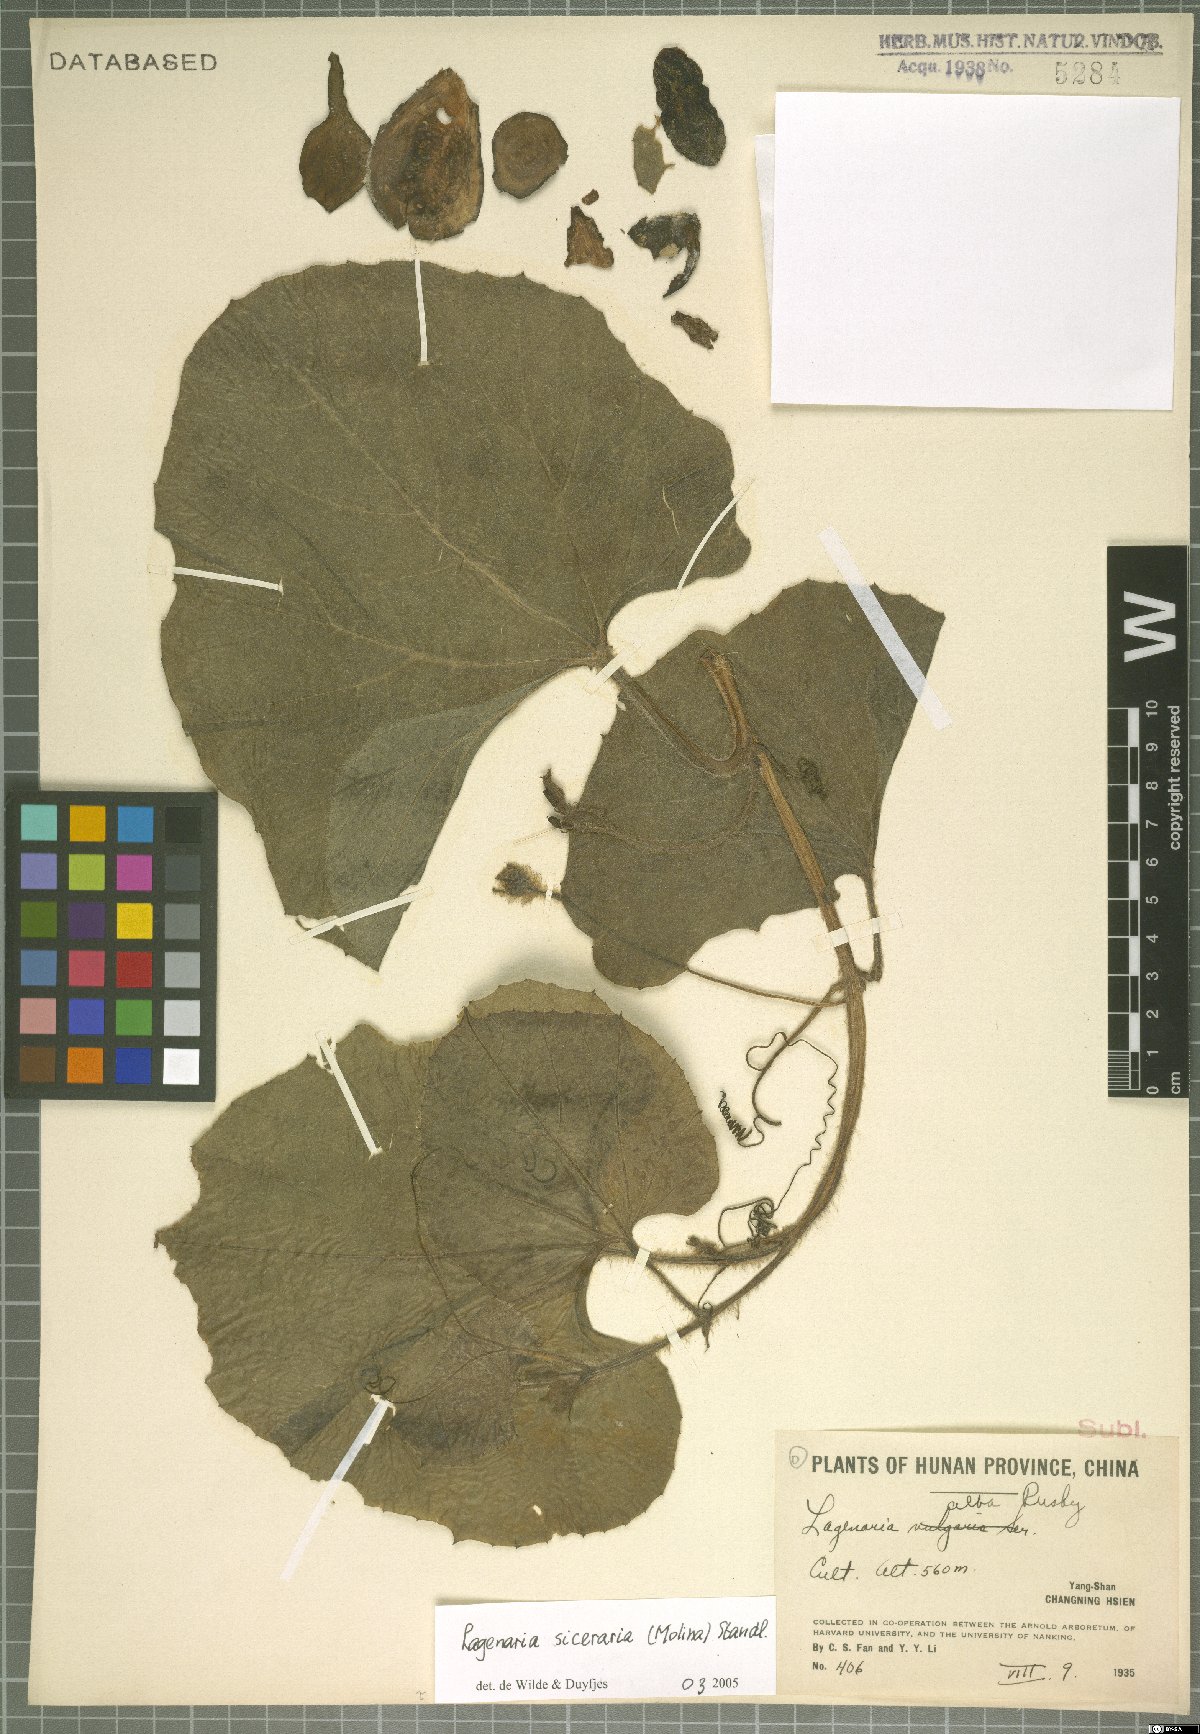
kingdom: Plantae
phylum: Tracheophyta
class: Magnoliopsida
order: Cucurbitales
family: Cucurbitaceae
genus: Lagenaria
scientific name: Lagenaria siceraria
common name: Bottle gourd
